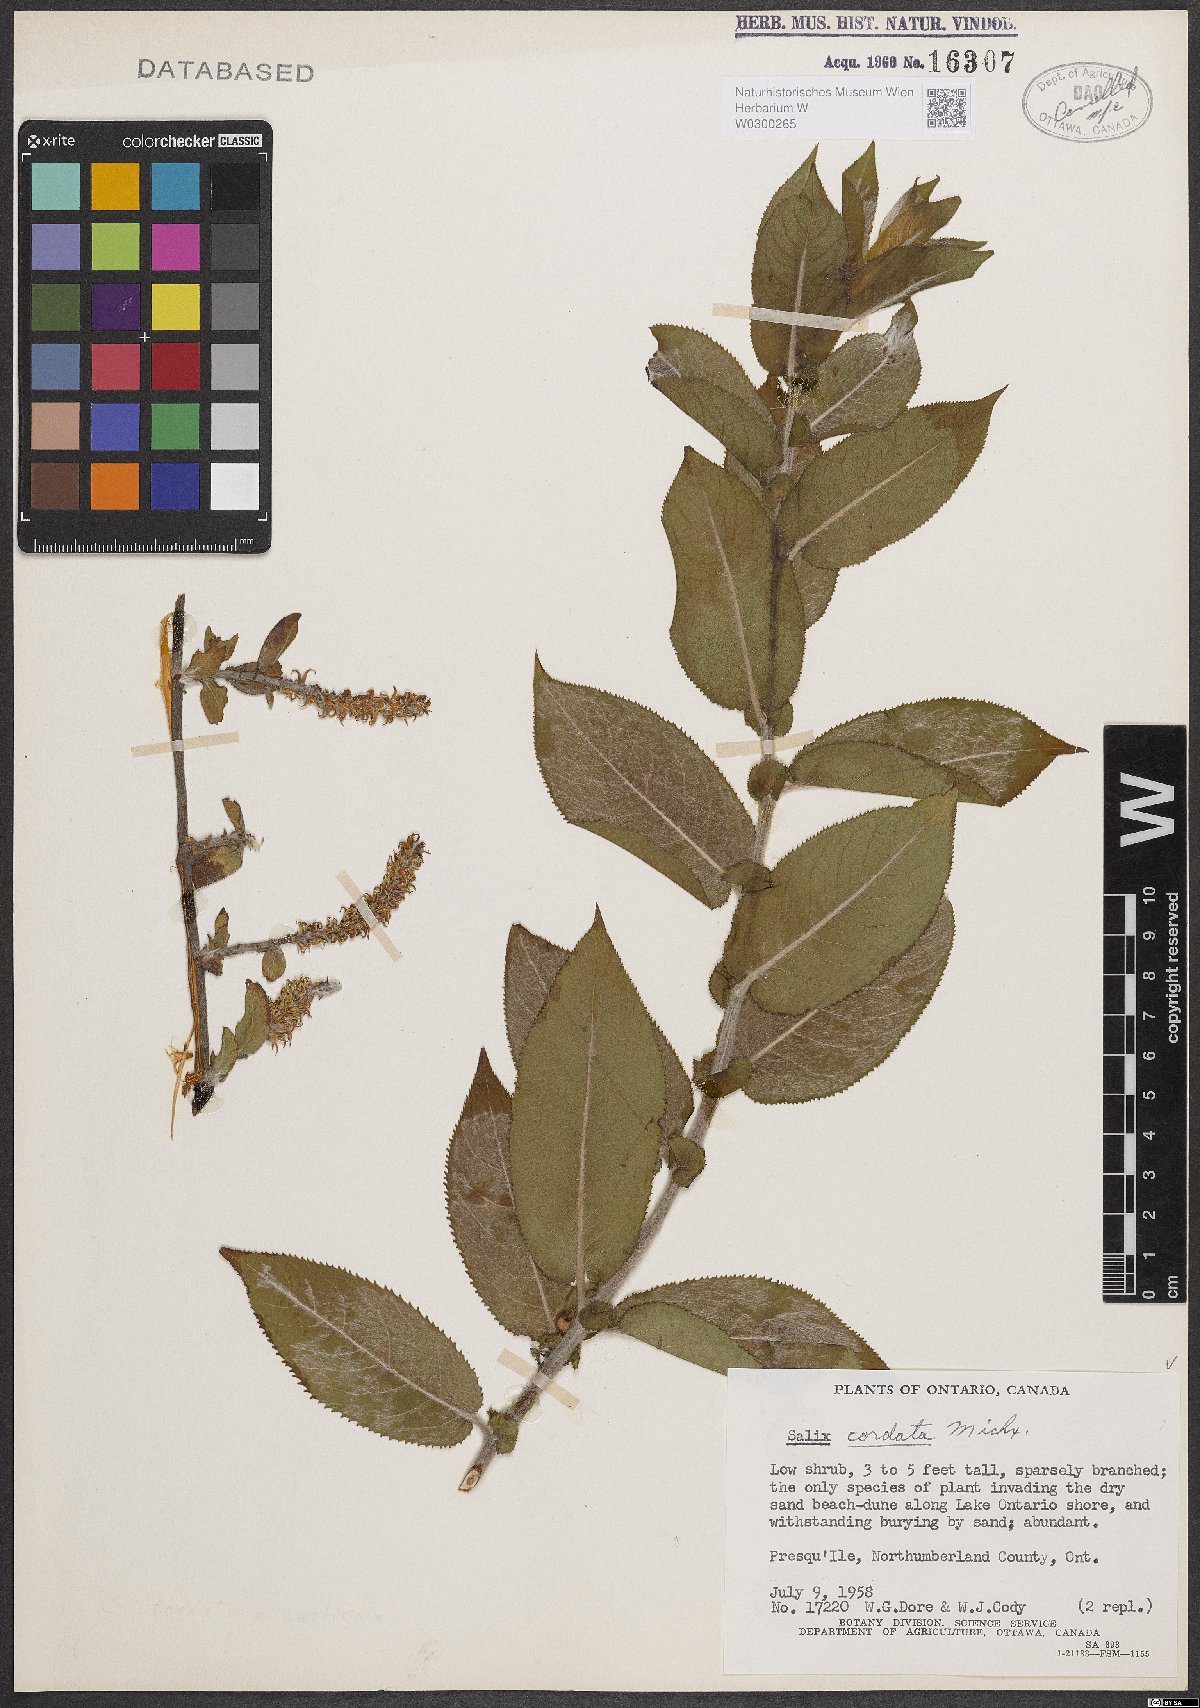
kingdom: Plantae
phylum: Tracheophyta
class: Magnoliopsida
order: Malpighiales
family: Salicaceae
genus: Salix
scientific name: Salix cordata
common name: Heart-leaf willow
